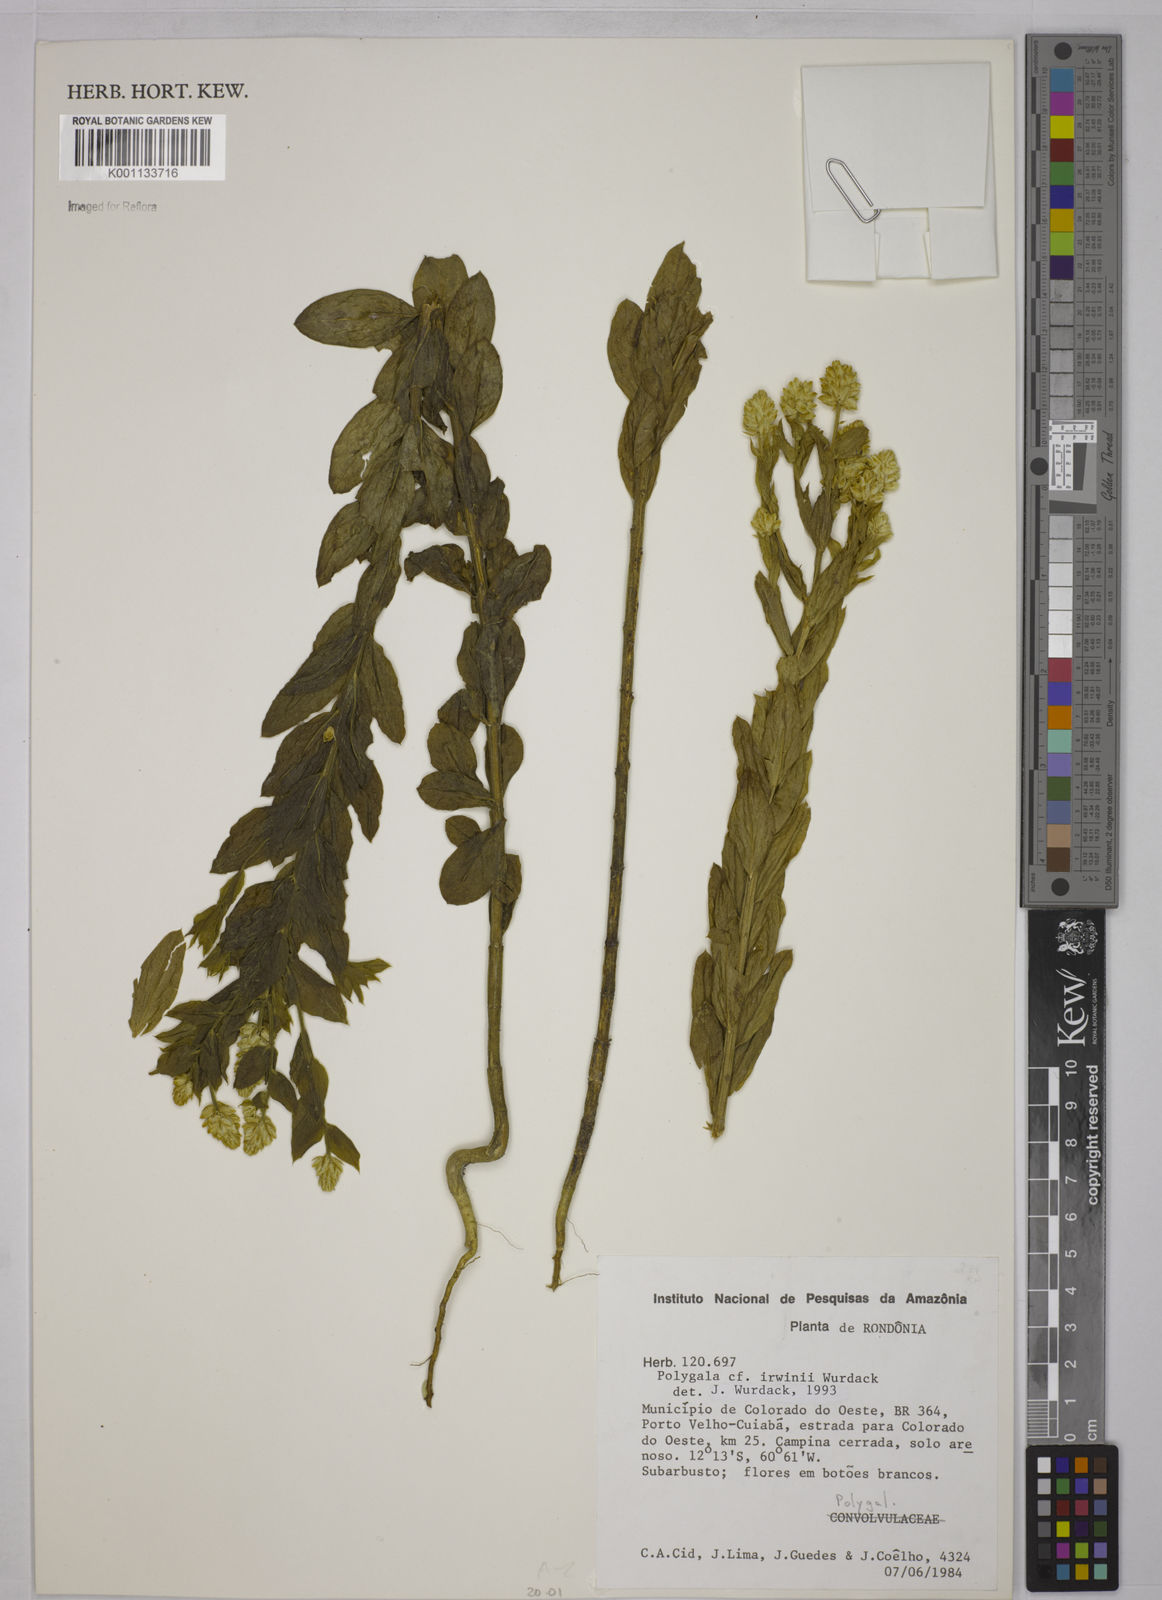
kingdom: Plantae
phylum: Tracheophyta
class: Magnoliopsida
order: Fabales
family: Polygalaceae
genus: Polygala
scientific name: Polygala irwinii
